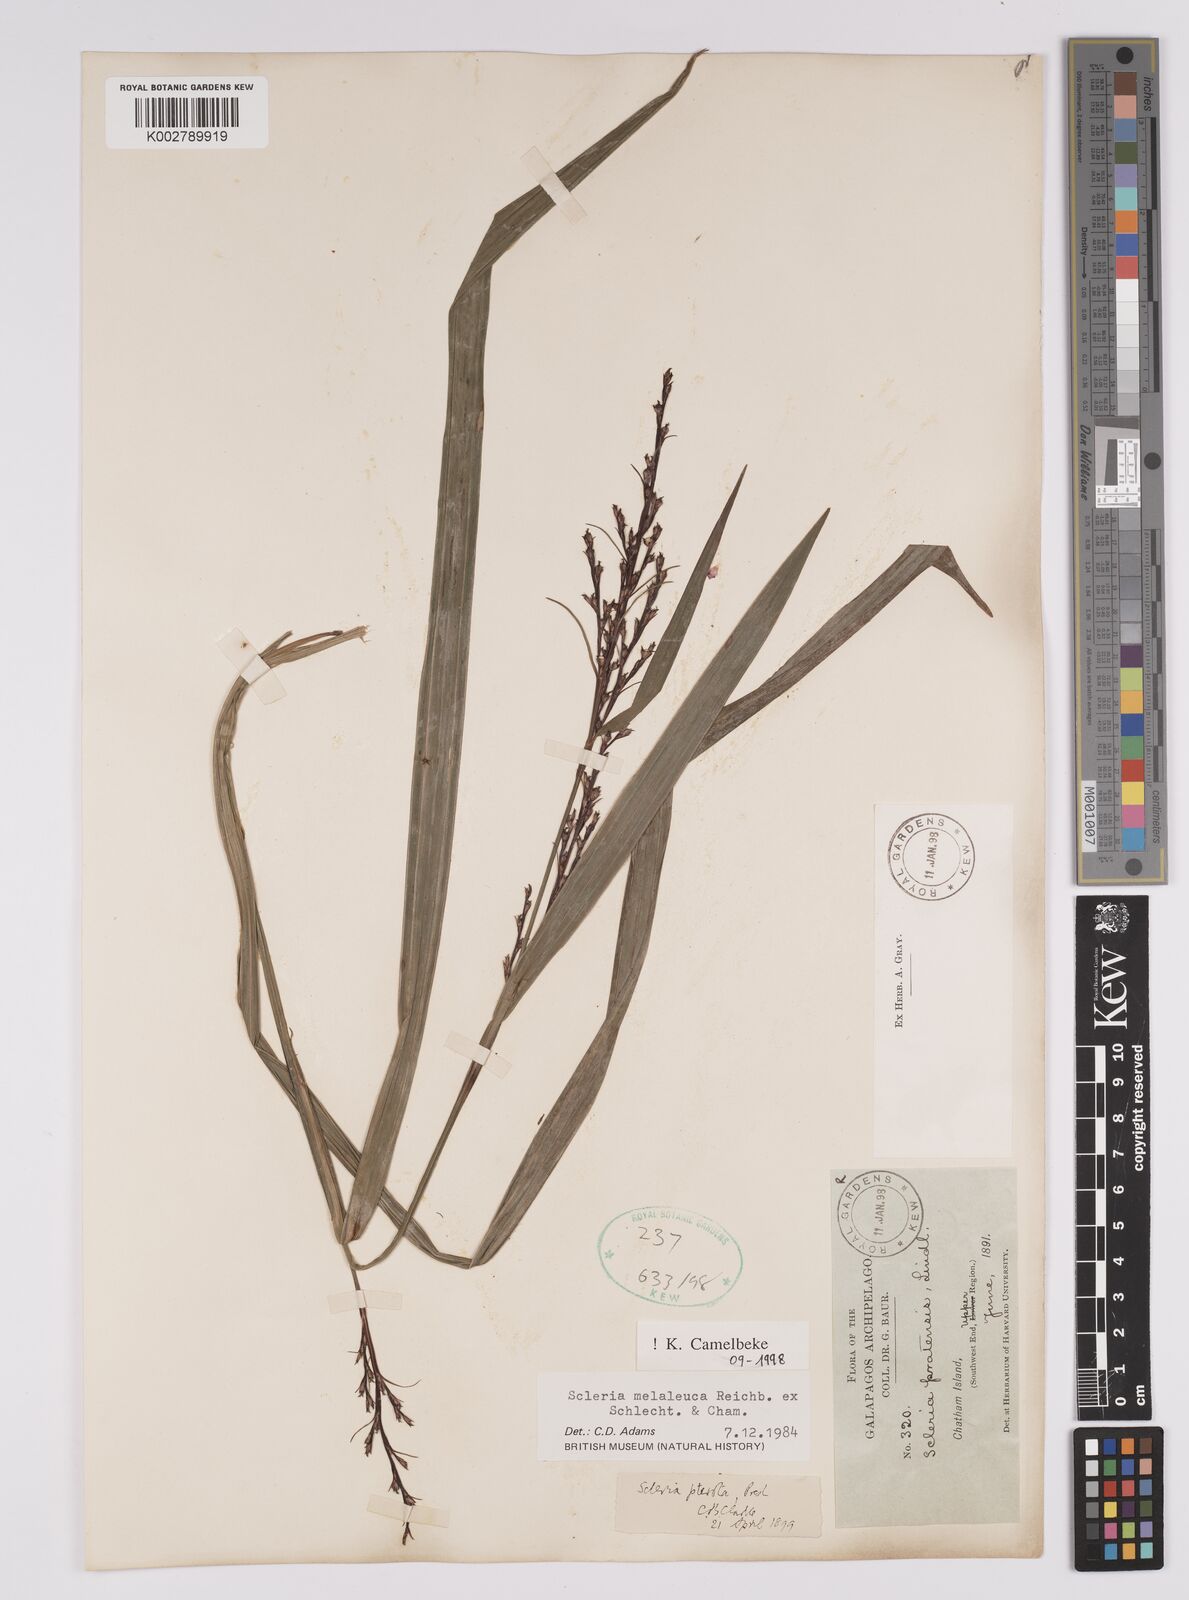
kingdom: Plantae
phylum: Tracheophyta
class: Liliopsida
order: Poales
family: Cyperaceae
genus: Scleria
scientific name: Scleria gaertneri
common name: Cortadera blanca
